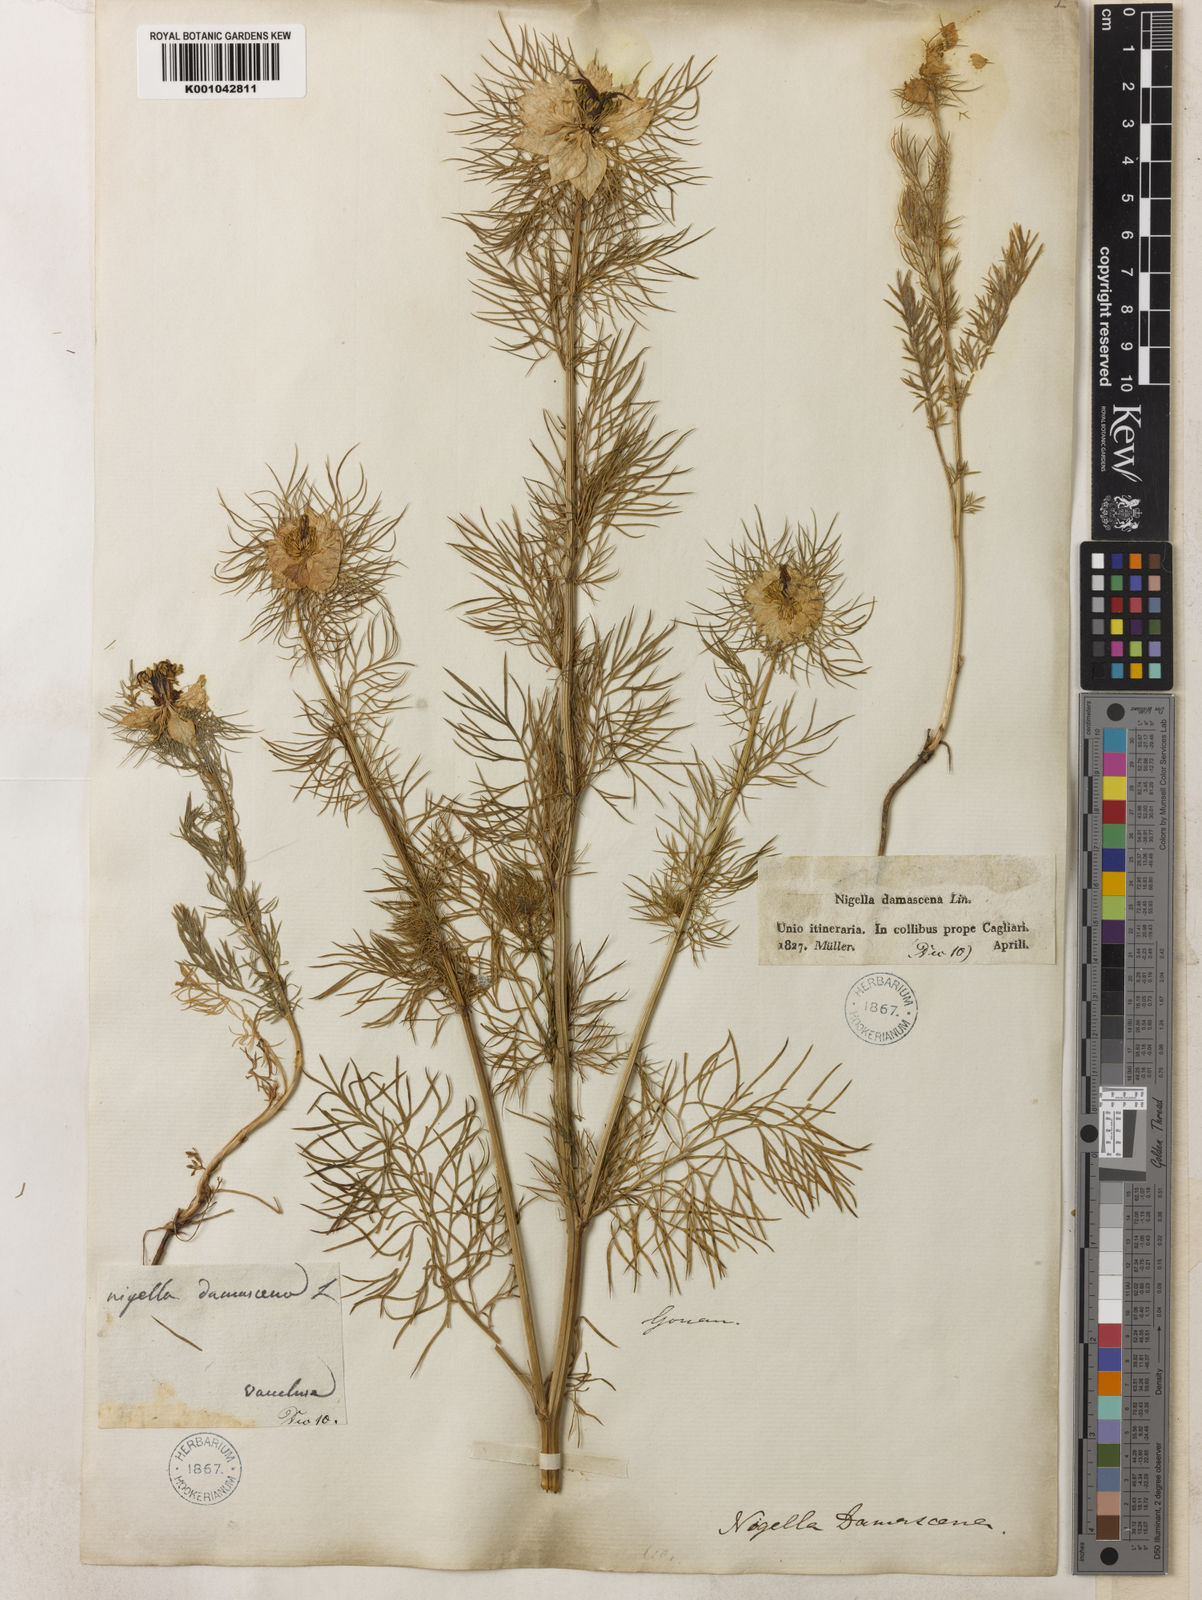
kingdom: Plantae
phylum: Tracheophyta
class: Magnoliopsida
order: Ranunculales
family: Ranunculaceae
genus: Nigella
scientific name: Nigella damascena
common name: Love-in-a-mist
